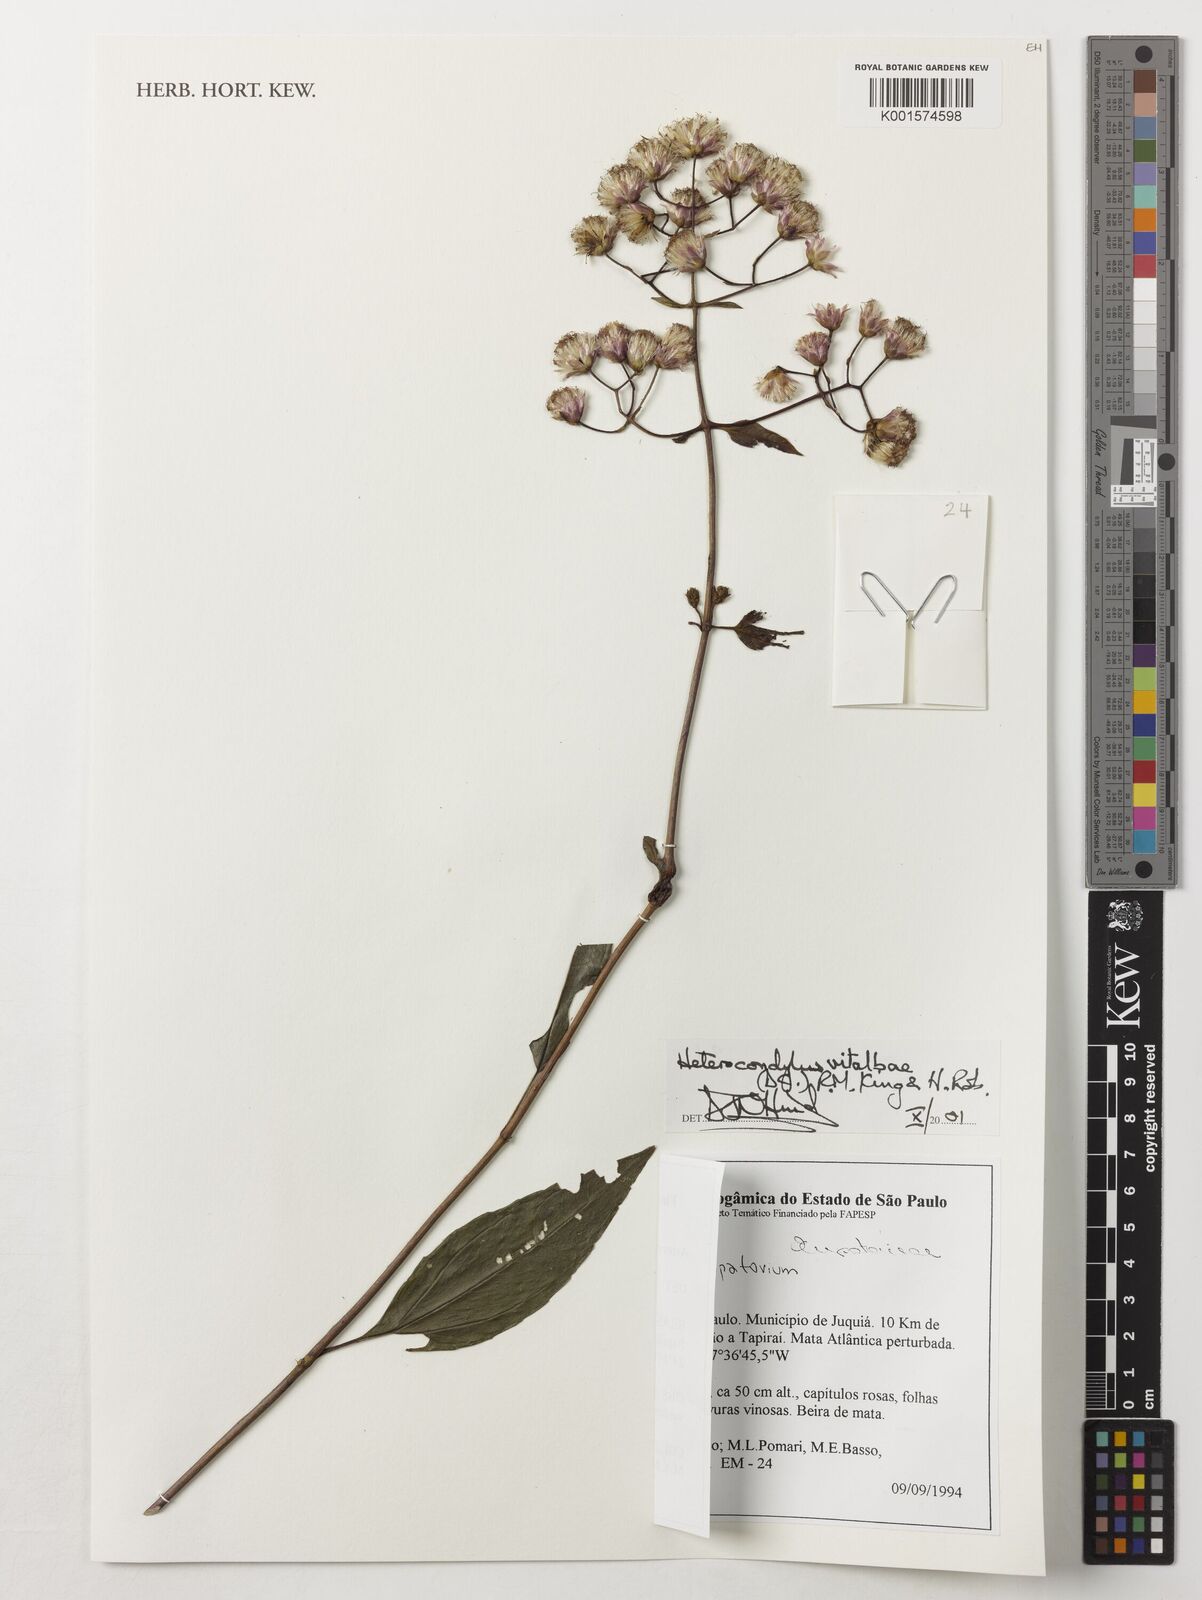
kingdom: Plantae
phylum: Tracheophyta
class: Magnoliopsida
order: Asterales
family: Asteraceae
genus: Heterocondylus
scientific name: Heterocondylus vitalbae
